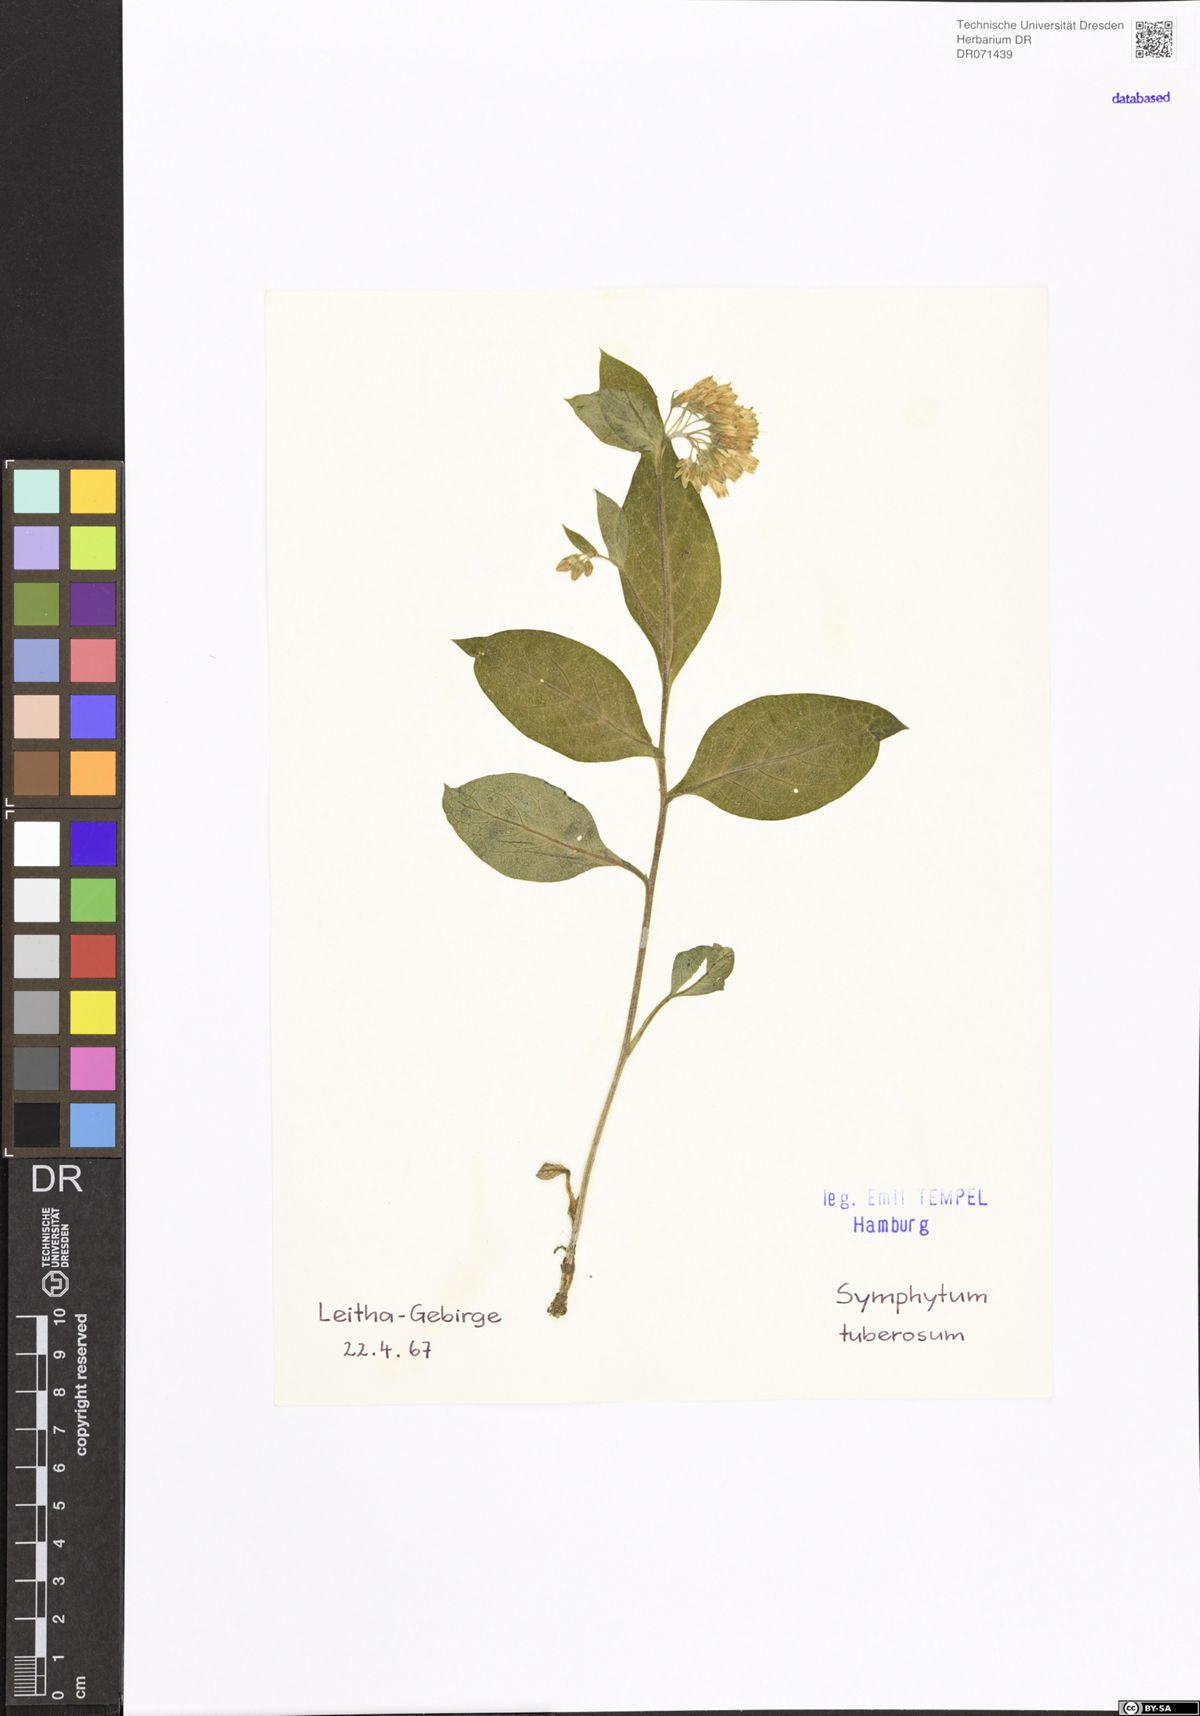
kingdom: Plantae
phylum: Tracheophyta
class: Magnoliopsida
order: Boraginales
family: Boraginaceae
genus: Symphytum
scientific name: Symphytum tuberosum
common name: Tuberous comfrey
